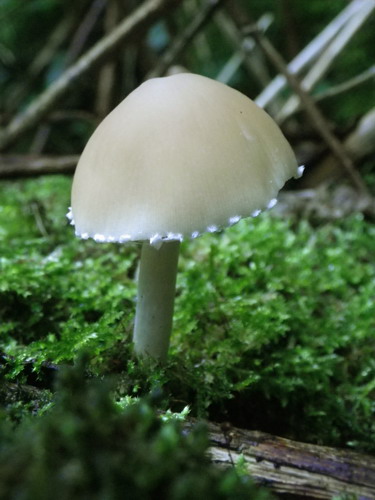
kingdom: Fungi
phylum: Basidiomycota
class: Agaricomycetes
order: Agaricales
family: Psathyrellaceae
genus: Candolleomyces
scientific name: Candolleomyces candolleanus
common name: Candolles mørkhat
